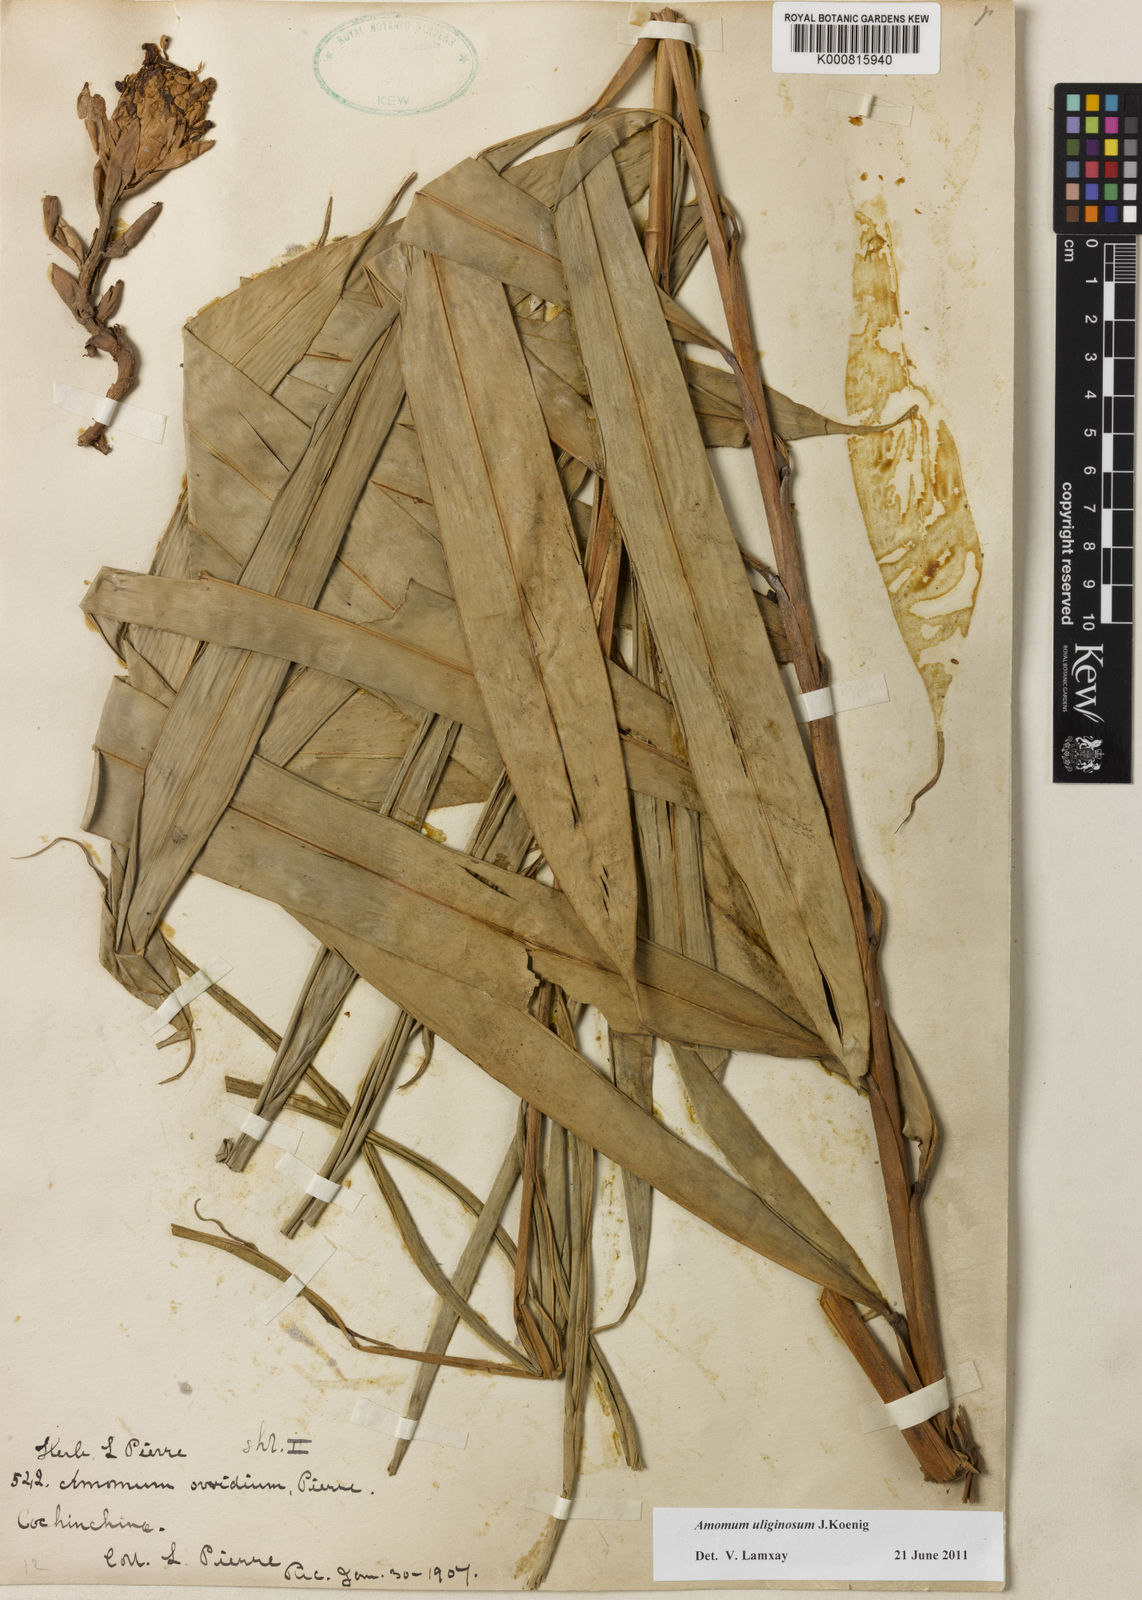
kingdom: Plantae
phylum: Tracheophyta
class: Liliopsida
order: Zingiberales
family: Zingiberaceae
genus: Wurfbainia
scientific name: Wurfbainia uliginosa
